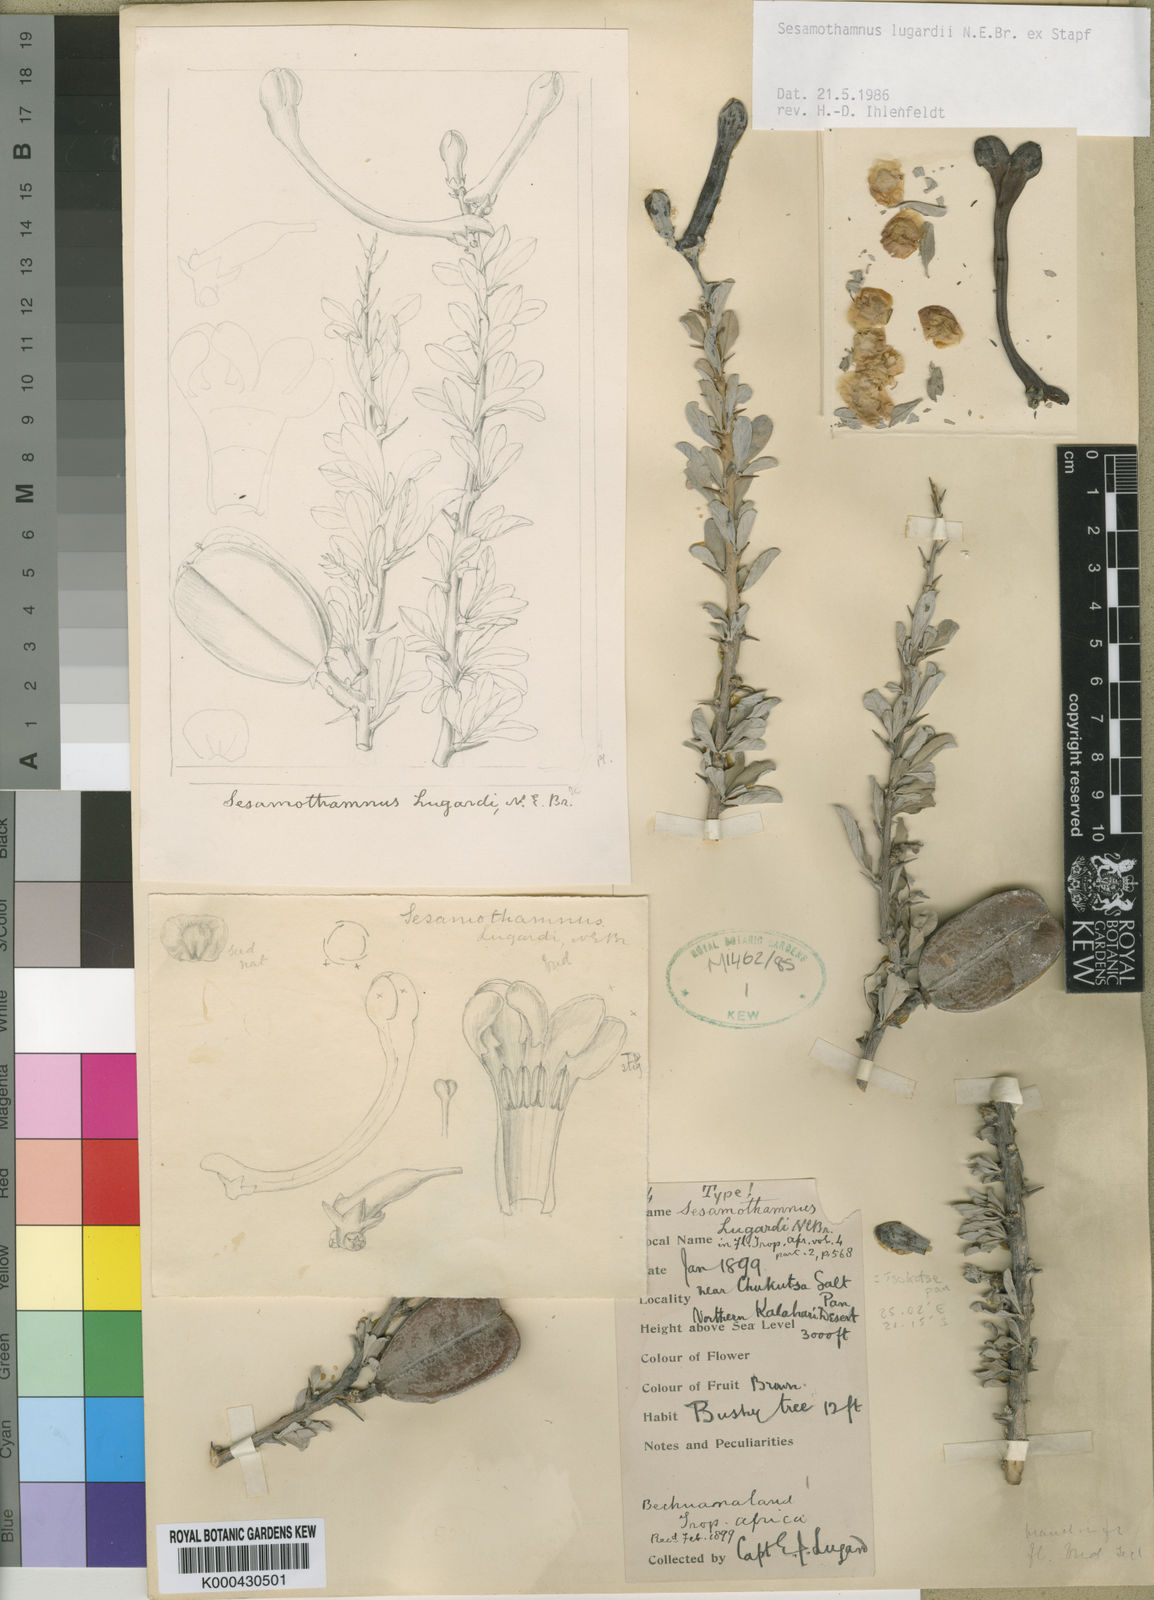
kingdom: Plantae
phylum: Tracheophyta
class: Magnoliopsida
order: Lamiales
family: Pedaliaceae
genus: Sesamothamnus
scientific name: Sesamothamnus lugardii
